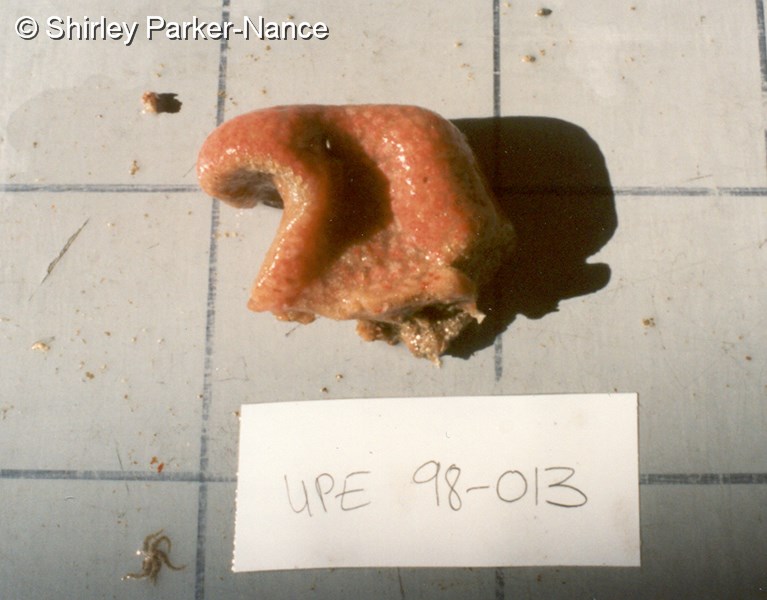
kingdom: Animalia
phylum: Chordata
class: Ascidiacea
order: Aplousobranchia
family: Polyclinidae
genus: Aplidium
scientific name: Aplidium mernooensis
